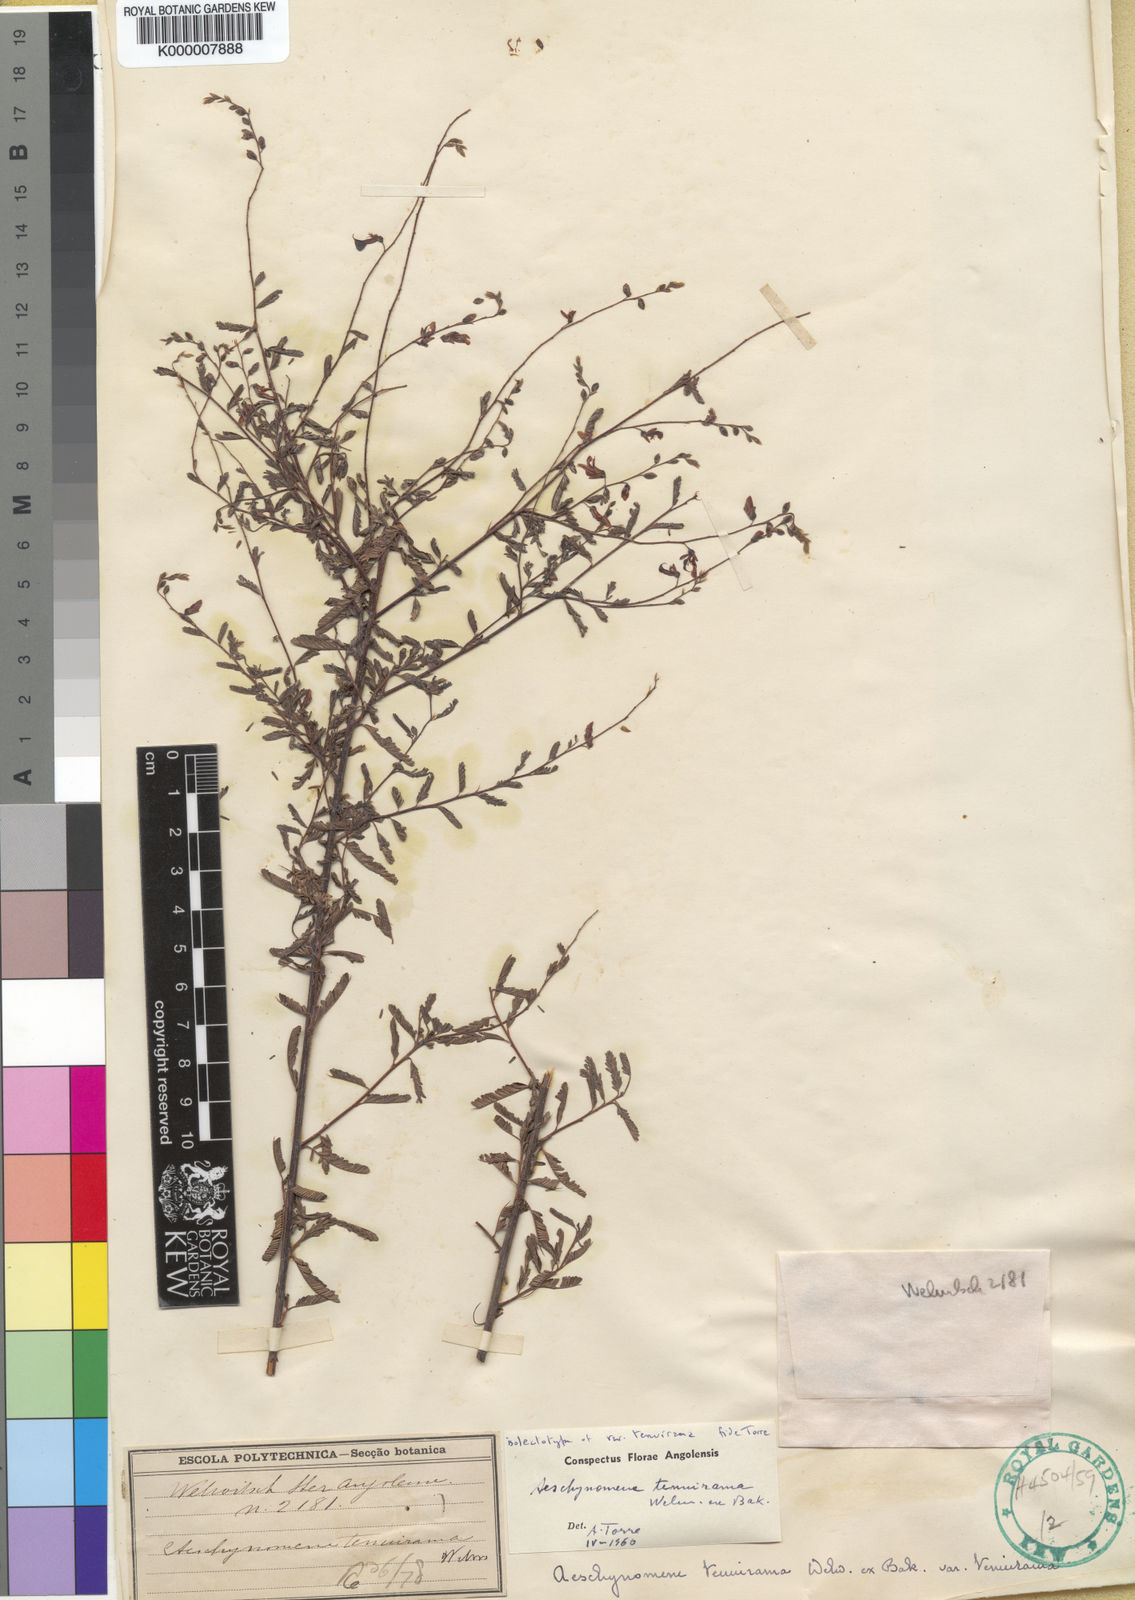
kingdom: Plantae
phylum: Tracheophyta
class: Magnoliopsida
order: Fabales
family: Fabaceae
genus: Aeschynomene
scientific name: Aeschynomene tenuirama
